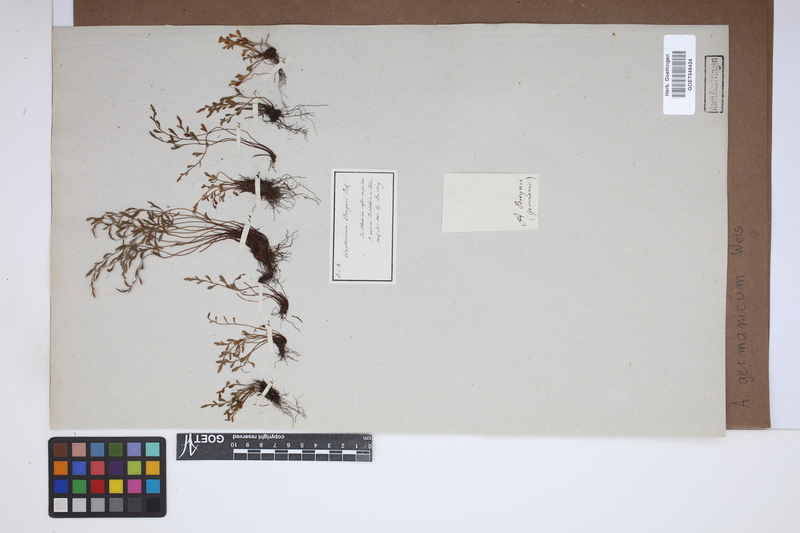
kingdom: Plantae
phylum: Tracheophyta
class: Polypodiopsida
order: Polypodiales
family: Aspleniaceae
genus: Asplenium
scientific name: Asplenium
